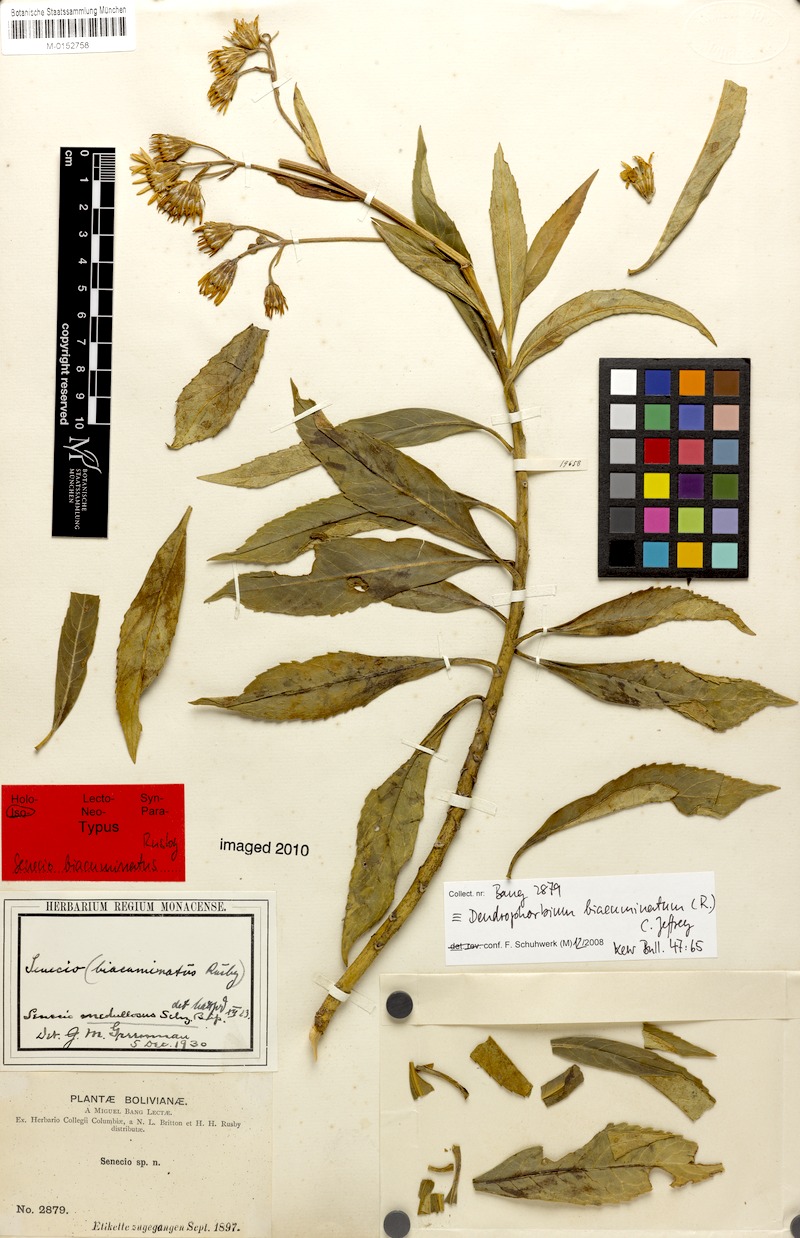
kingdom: Plantae
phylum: Tracheophyta
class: Magnoliopsida
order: Asterales
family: Asteraceae
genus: Dendrophorbium
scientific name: Dendrophorbium biacuminatum
